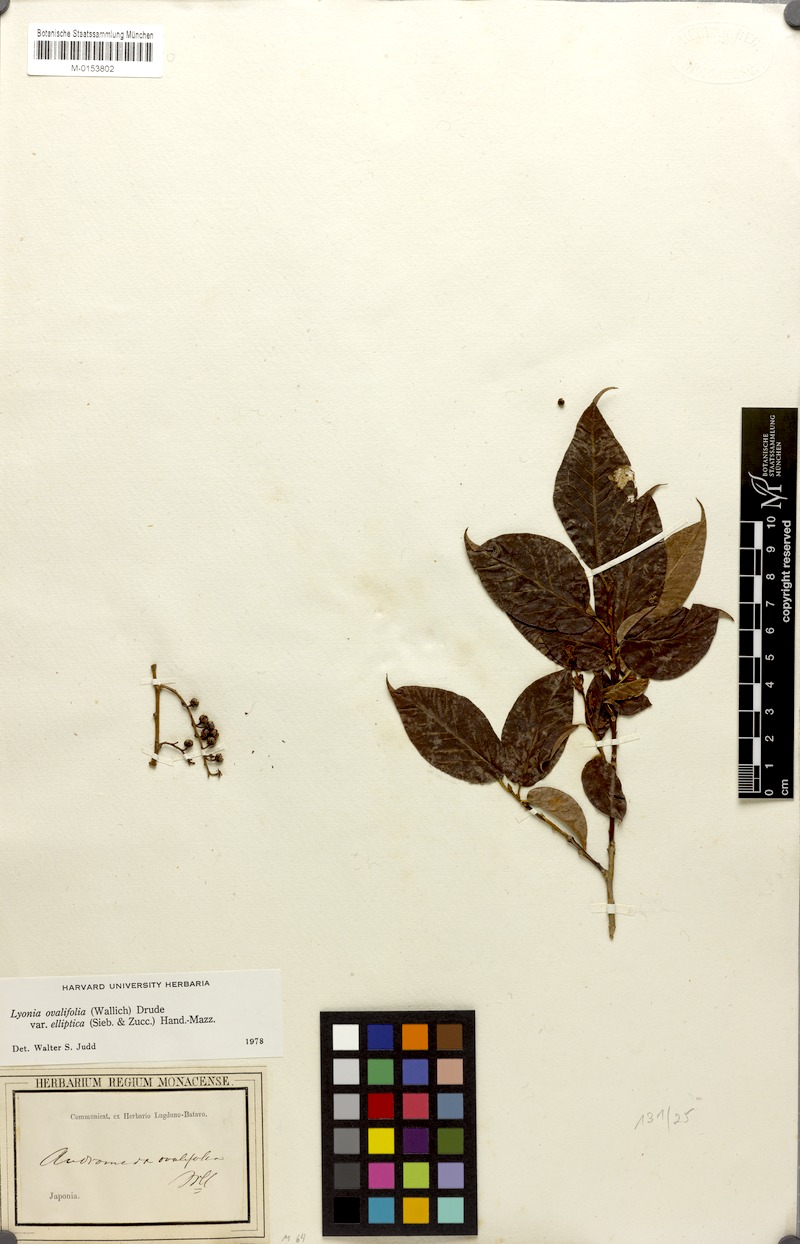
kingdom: Plantae
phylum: Tracheophyta
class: Magnoliopsida
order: Ericales
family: Ericaceae
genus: Lyonia
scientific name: Lyonia ovalifolia
